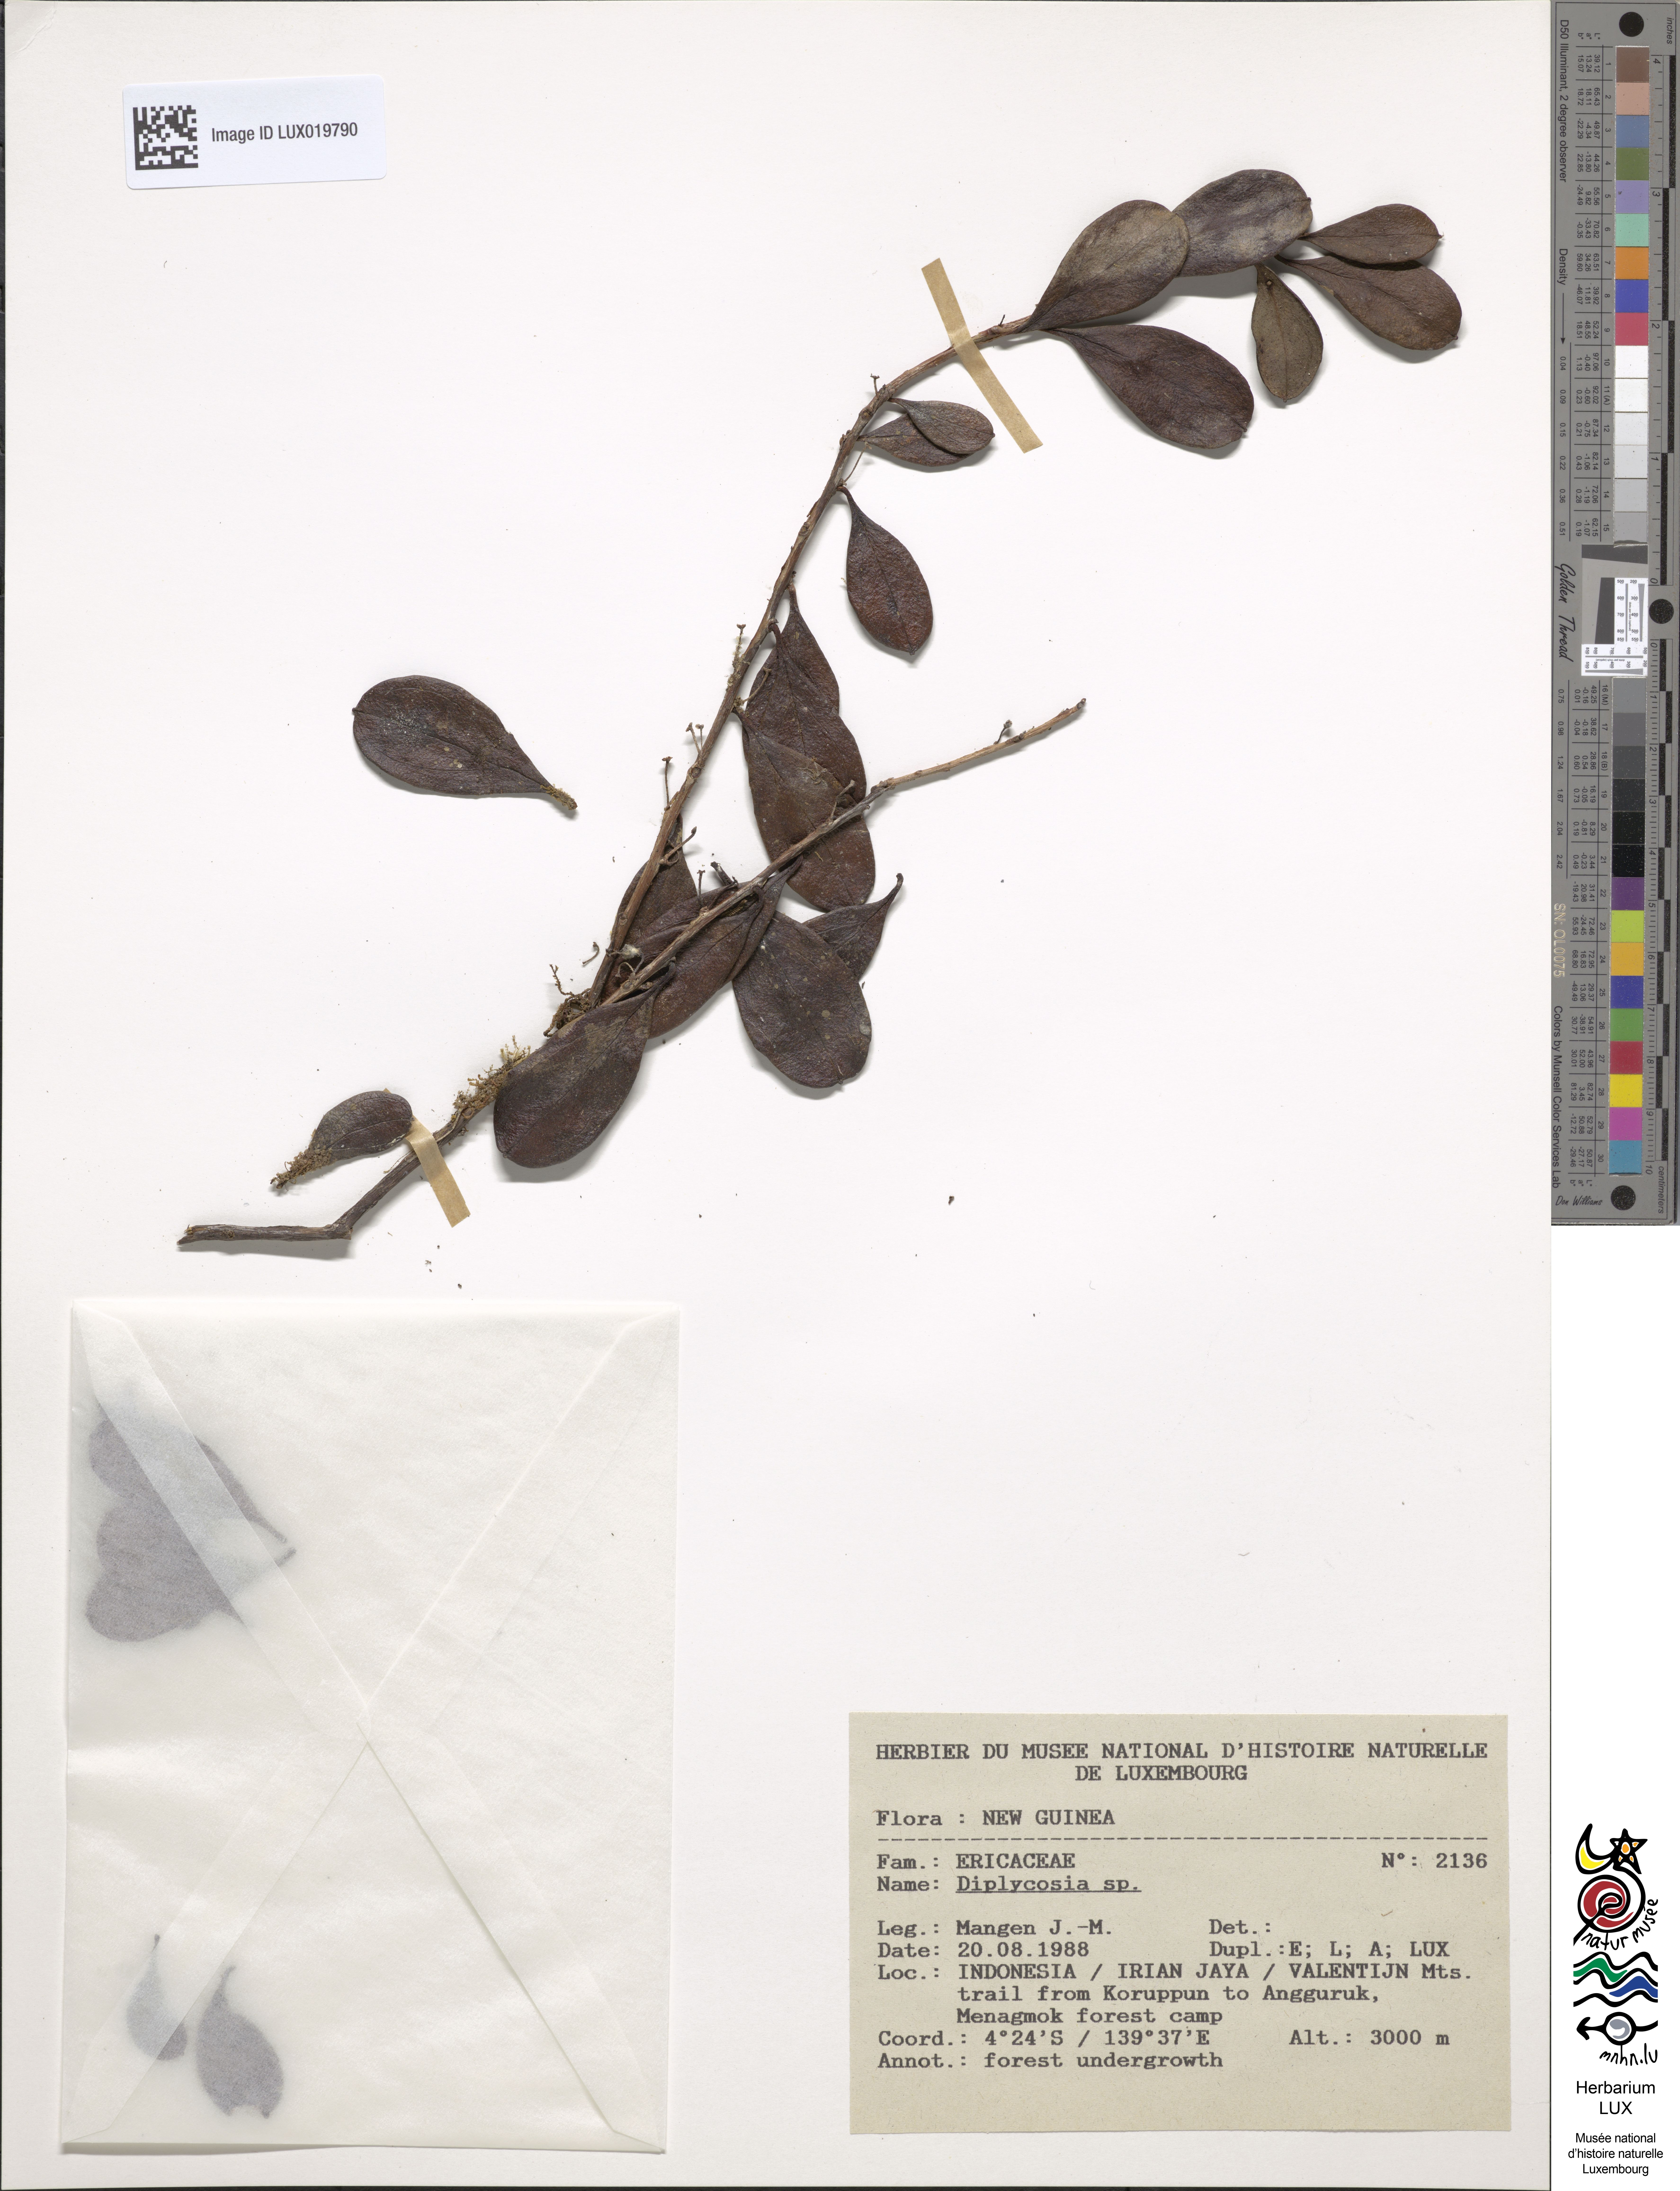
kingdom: Plantae
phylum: Tracheophyta
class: Magnoliopsida
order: Ericales
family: Ericaceae
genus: Gaultheria
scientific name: Gaultheria
